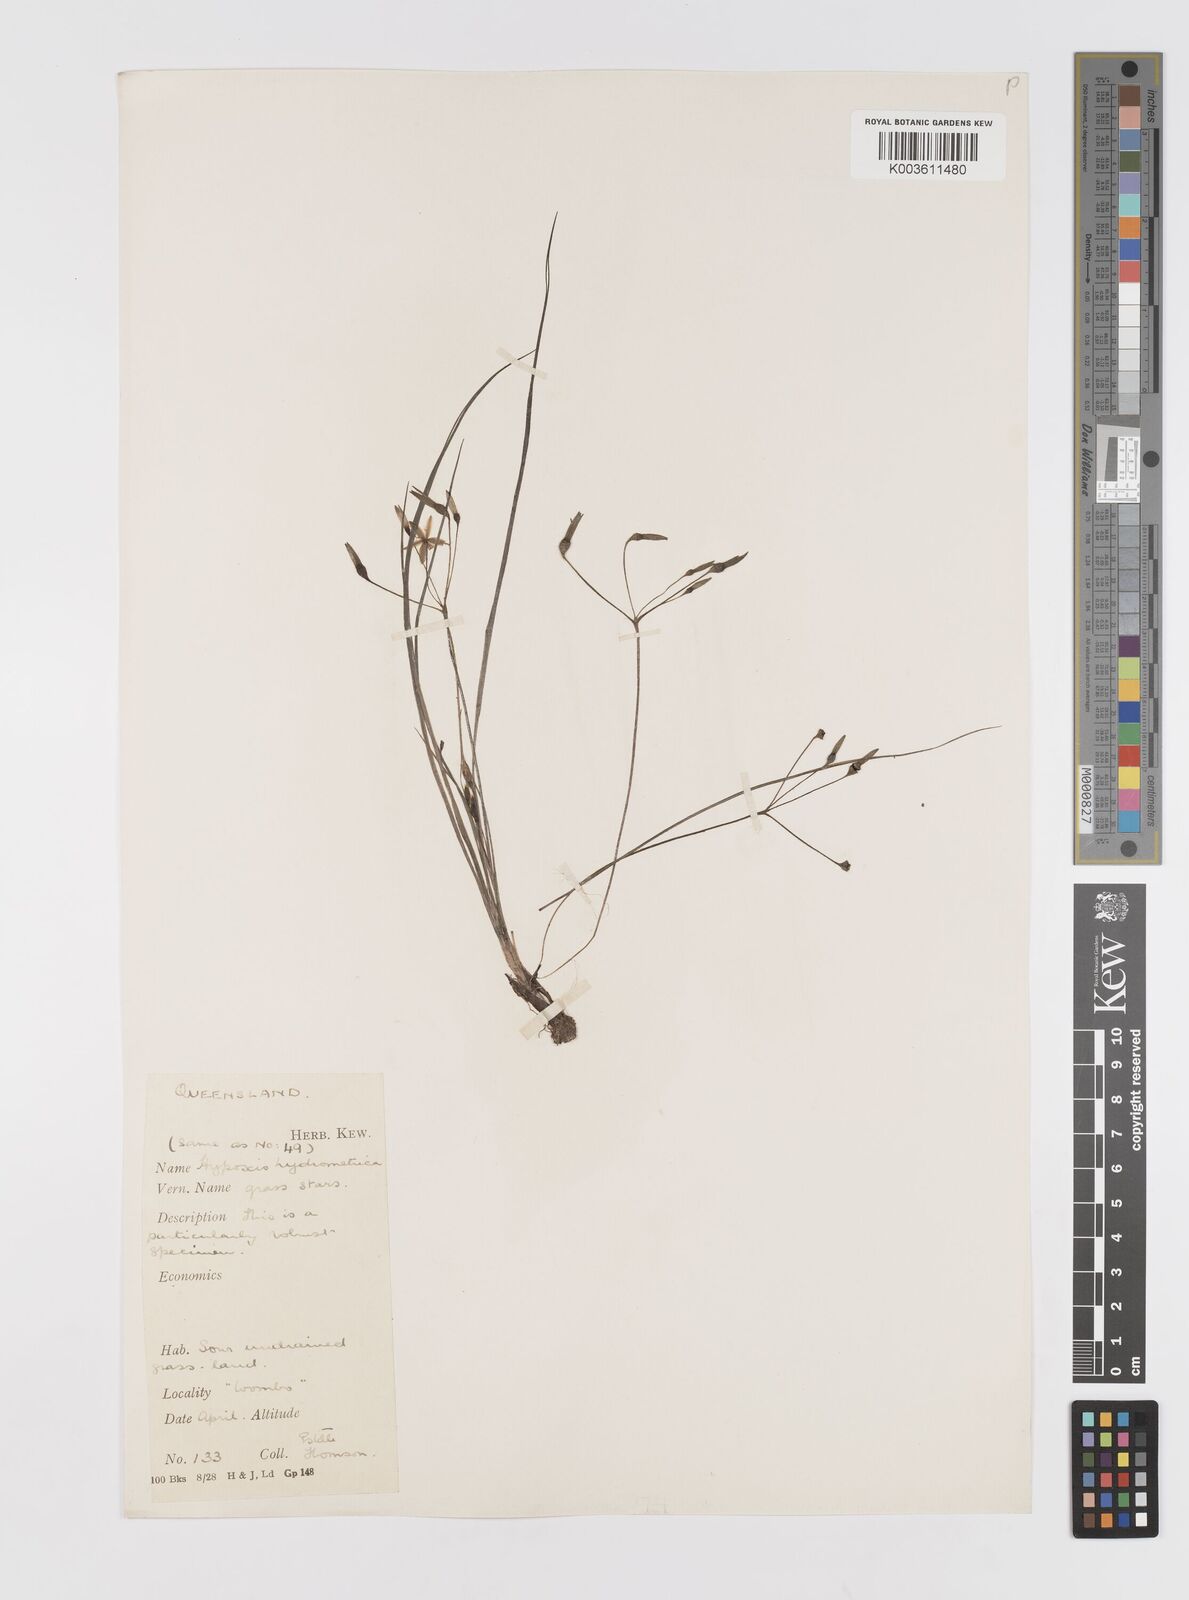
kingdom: Plantae
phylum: Tracheophyta
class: Liliopsida
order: Asparagales
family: Hypoxidaceae
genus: Hypoxis
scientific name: Hypoxis hygrometrica
